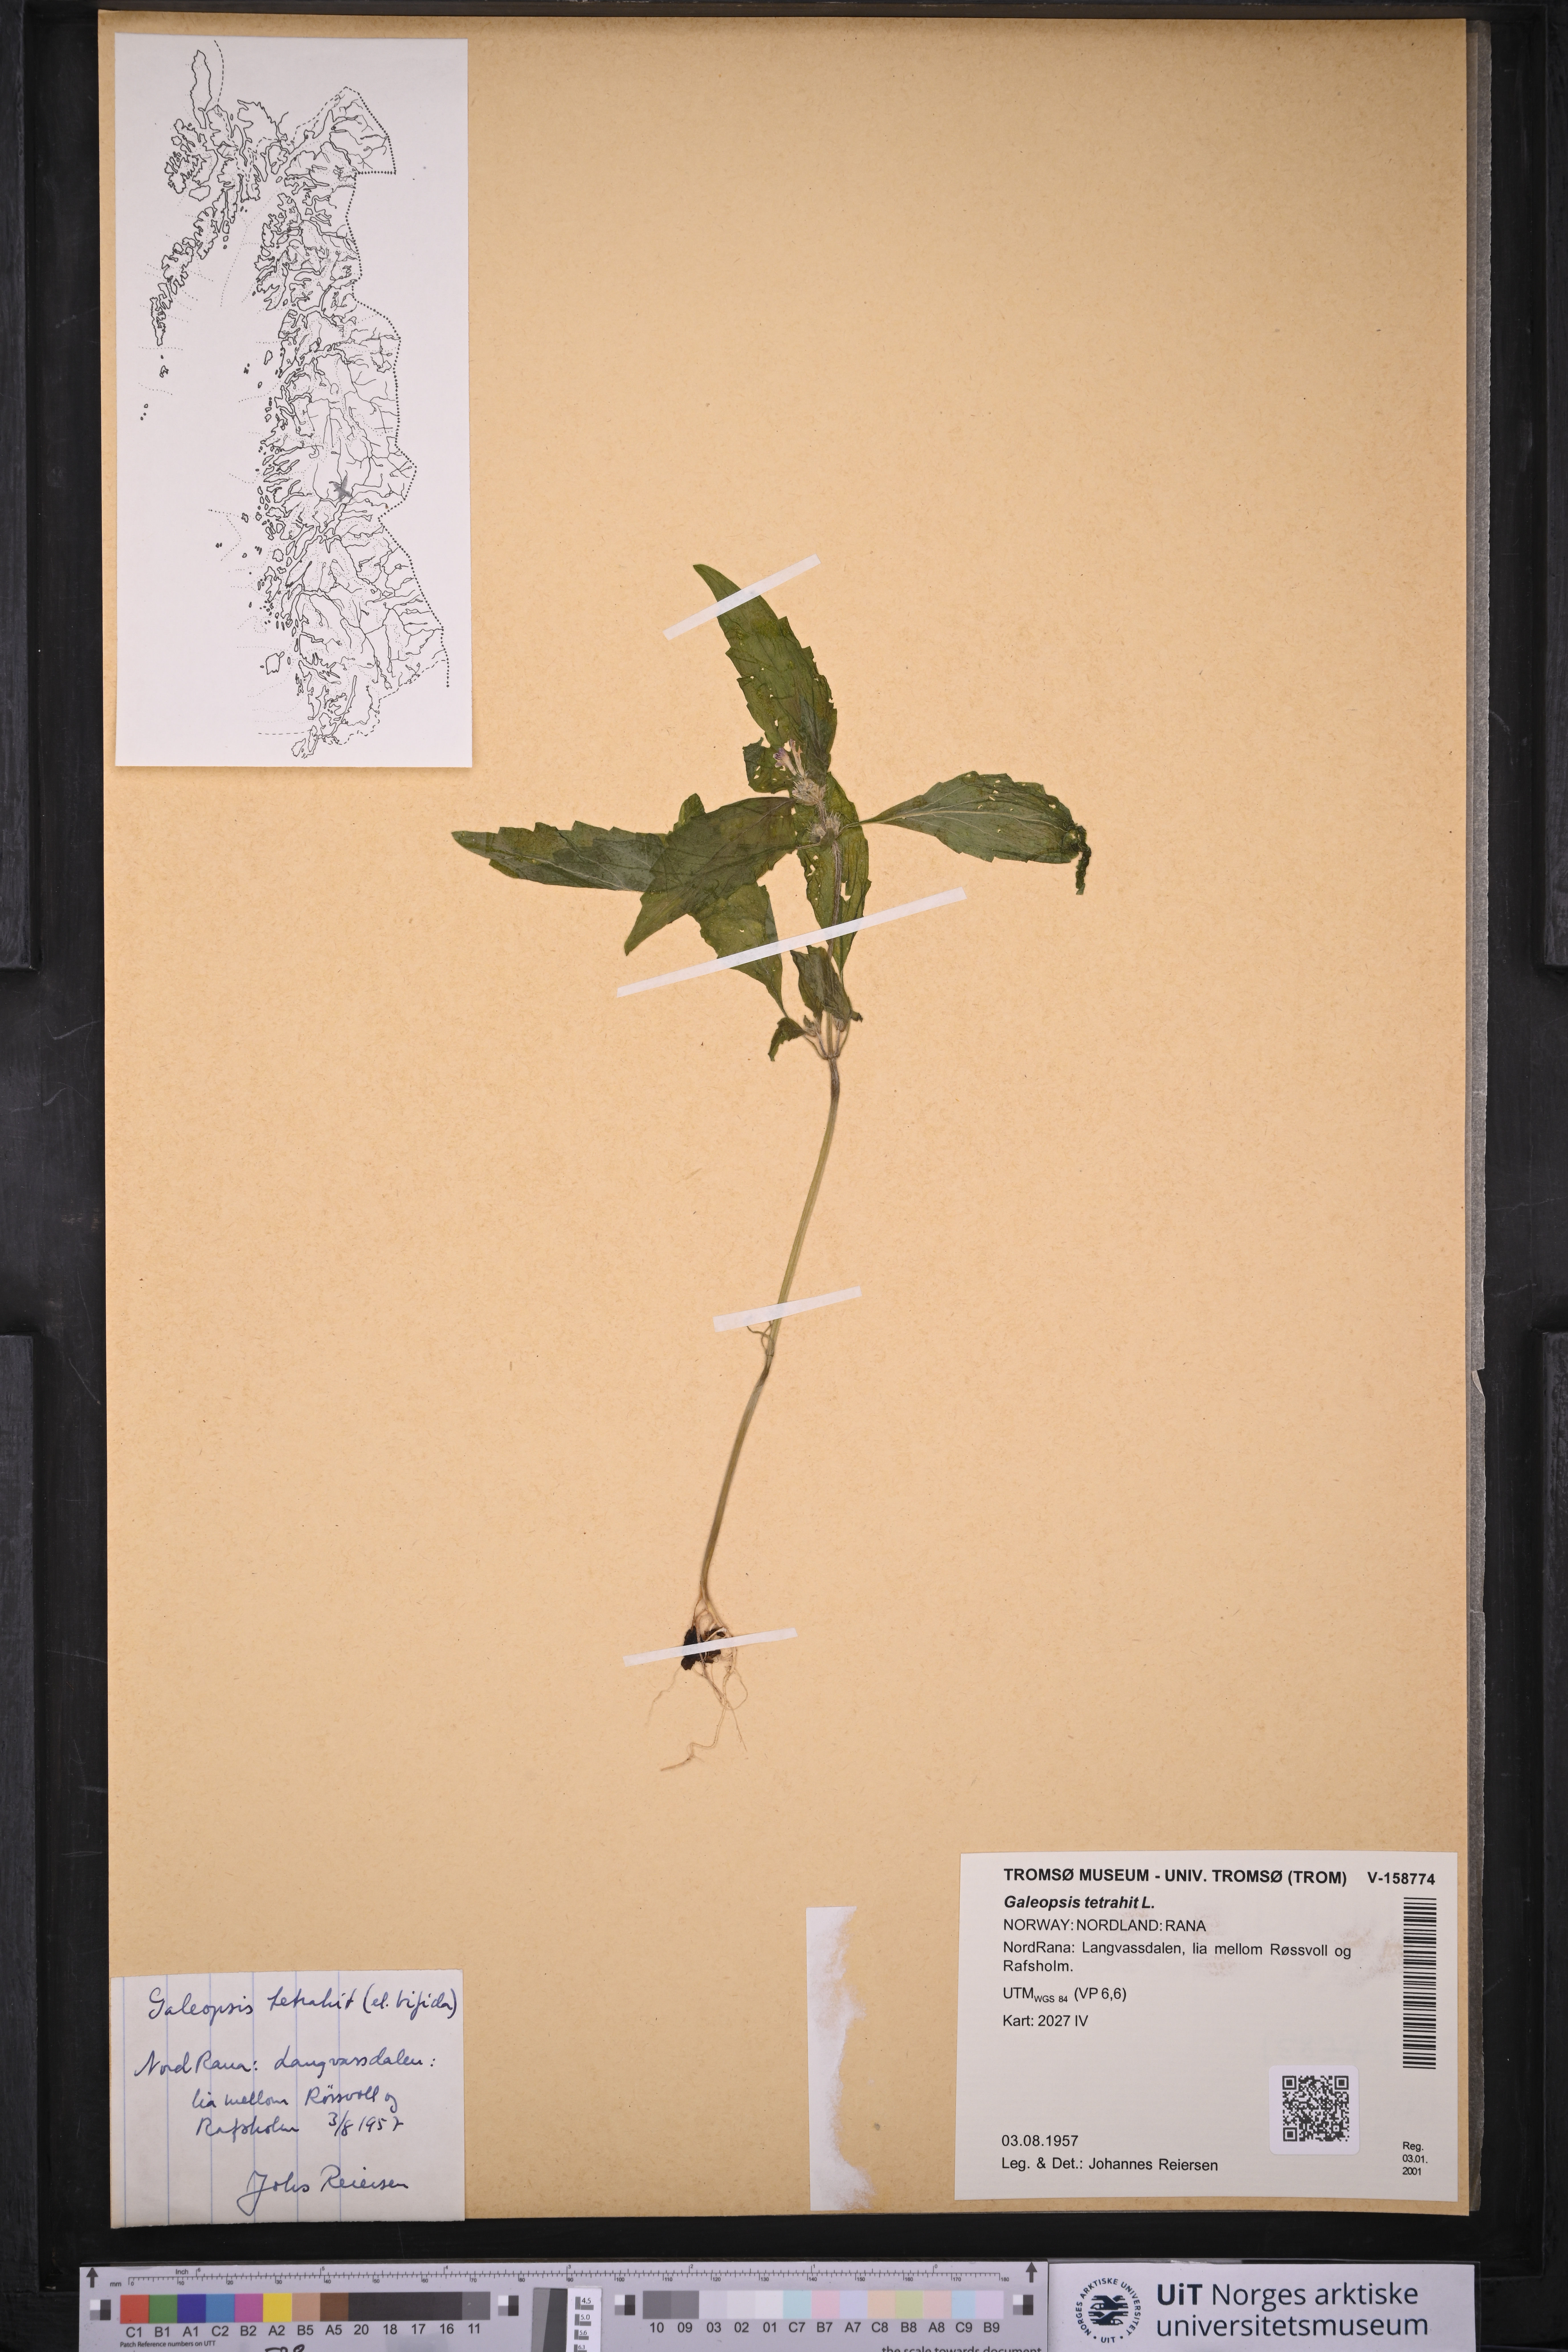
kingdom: Plantae
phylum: Tracheophyta
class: Magnoliopsida
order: Lamiales
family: Lamiaceae
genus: Galeopsis
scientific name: Galeopsis tetrahit
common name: Common hemp-nettle
